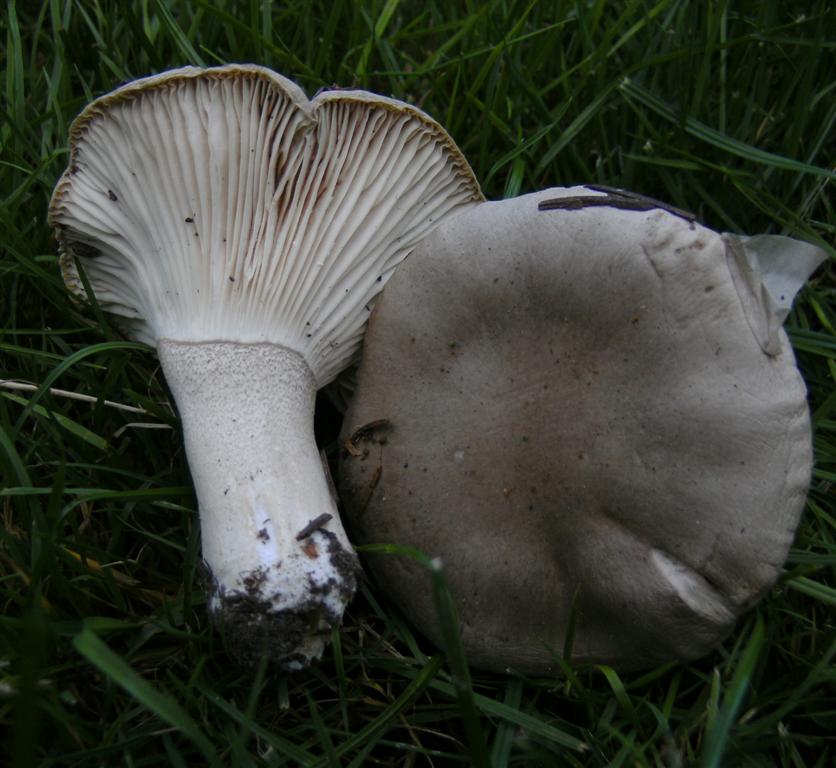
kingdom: Fungi
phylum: Basidiomycota
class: Agaricomycetes
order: Agaricales
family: Hygrophoraceae
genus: Hygrophorus
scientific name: Hygrophorus agathosmus
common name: vellugtende sneglehat
